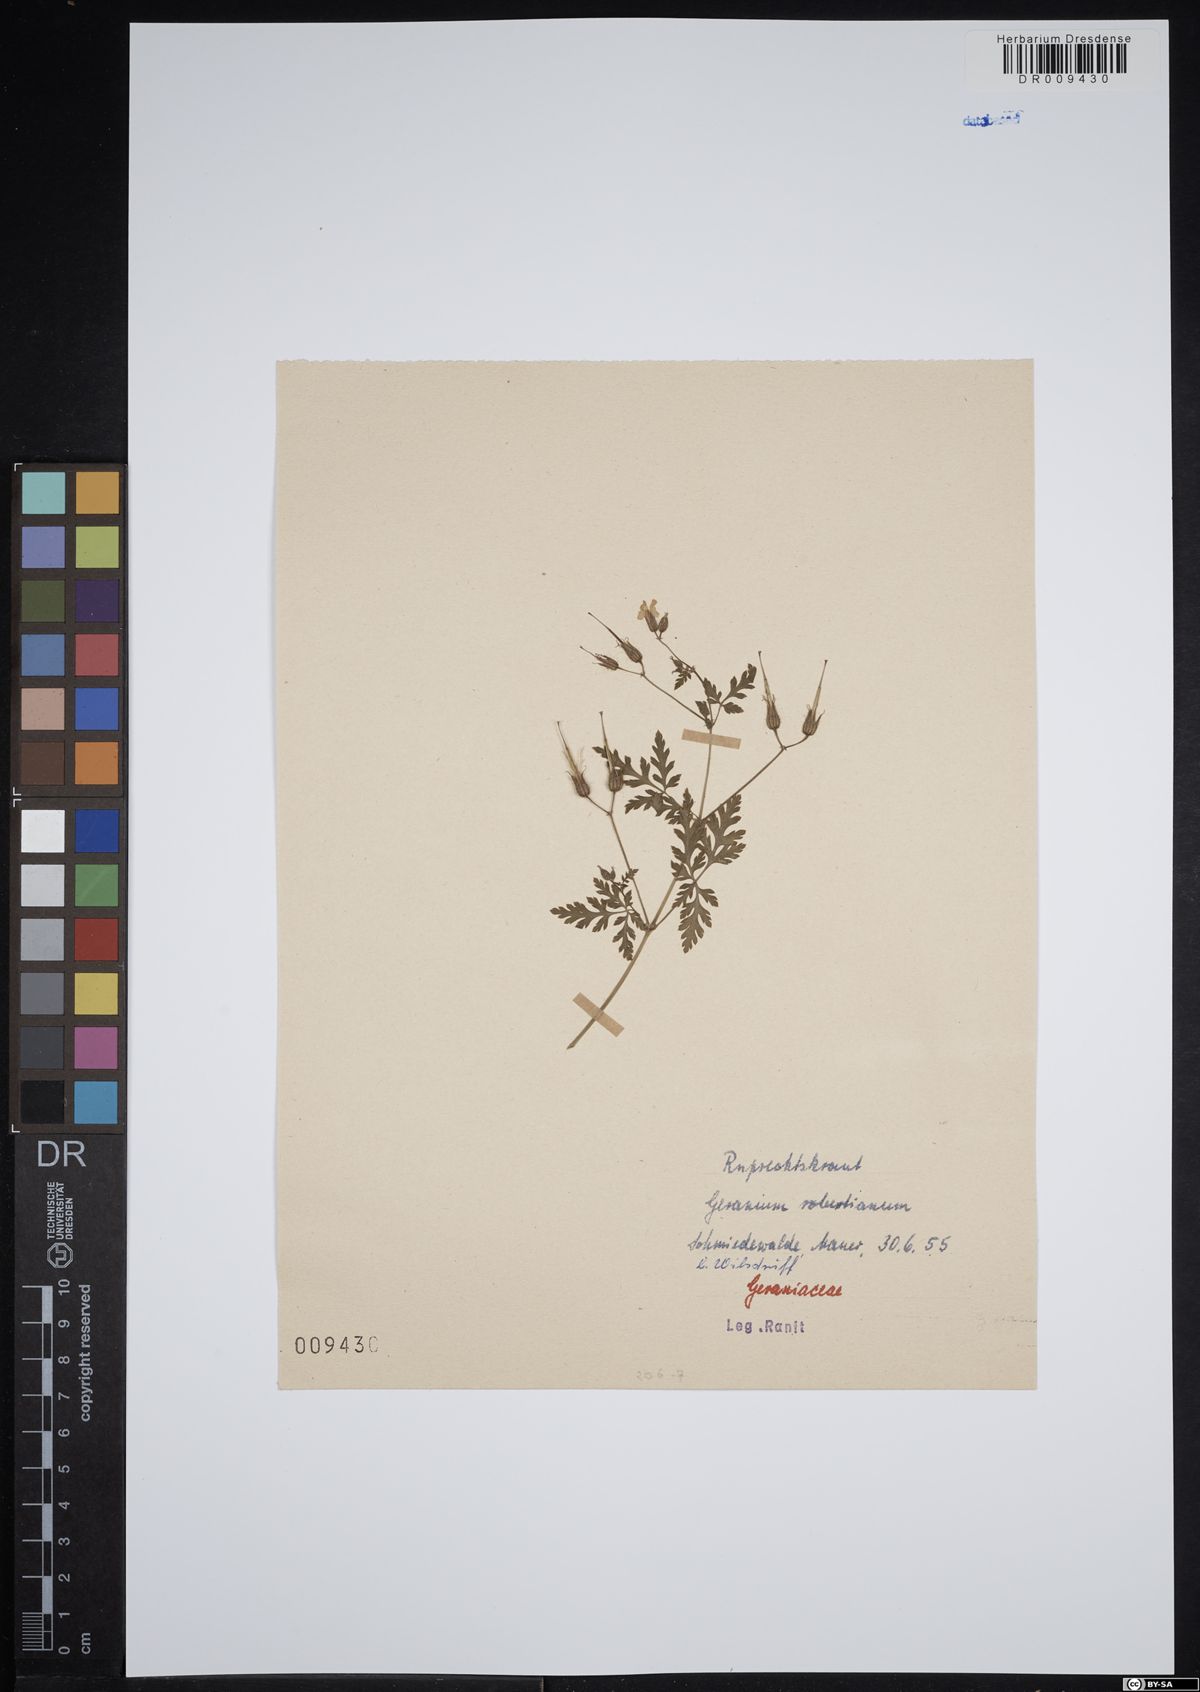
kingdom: Plantae
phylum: Tracheophyta
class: Magnoliopsida
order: Geraniales
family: Geraniaceae
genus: Geranium
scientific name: Geranium robertianum
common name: Herb-robert
